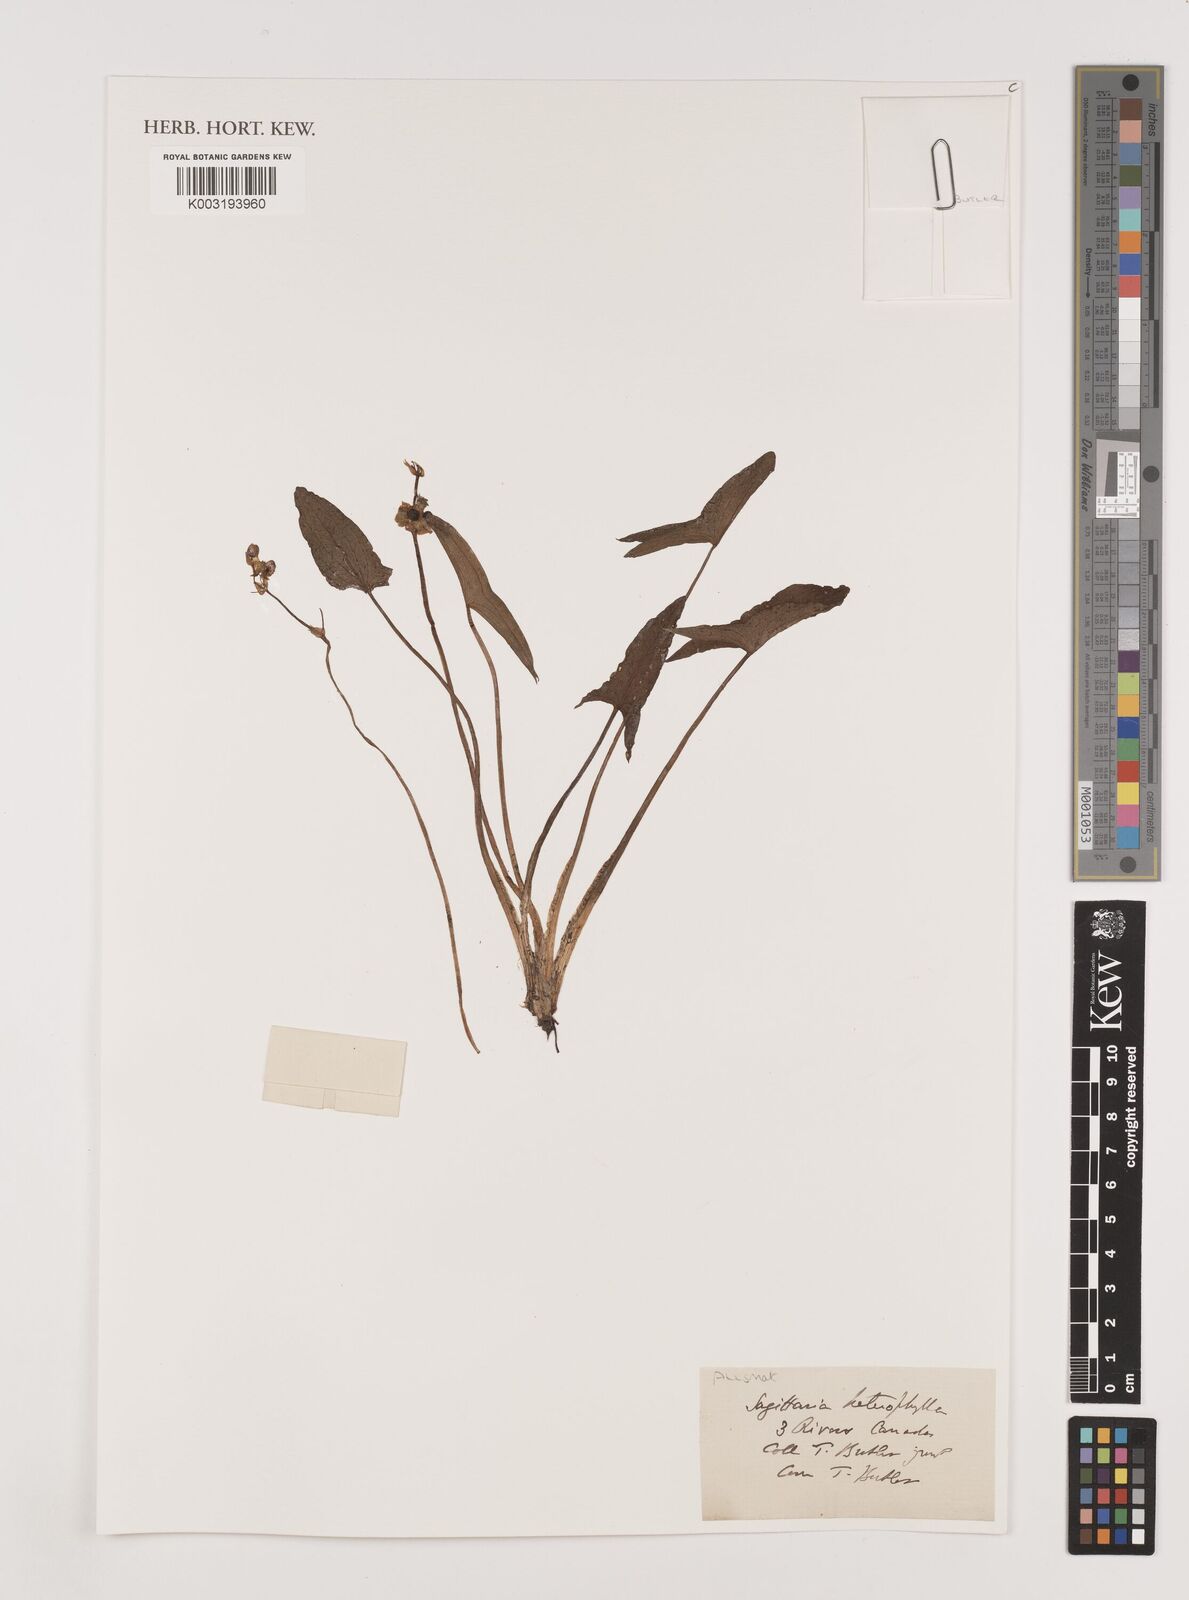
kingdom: Plantae
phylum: Tracheophyta
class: Liliopsida
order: Alismatales
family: Alismataceae
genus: Sagittaria
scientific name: Sagittaria sagittifolia
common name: Arrowhead
